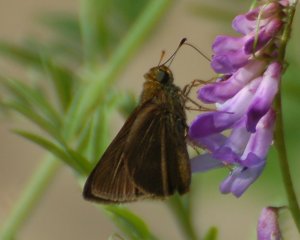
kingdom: Animalia
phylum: Arthropoda
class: Insecta
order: Lepidoptera
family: Hesperiidae
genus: Euphyes
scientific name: Euphyes vestris
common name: Dun Skipper
